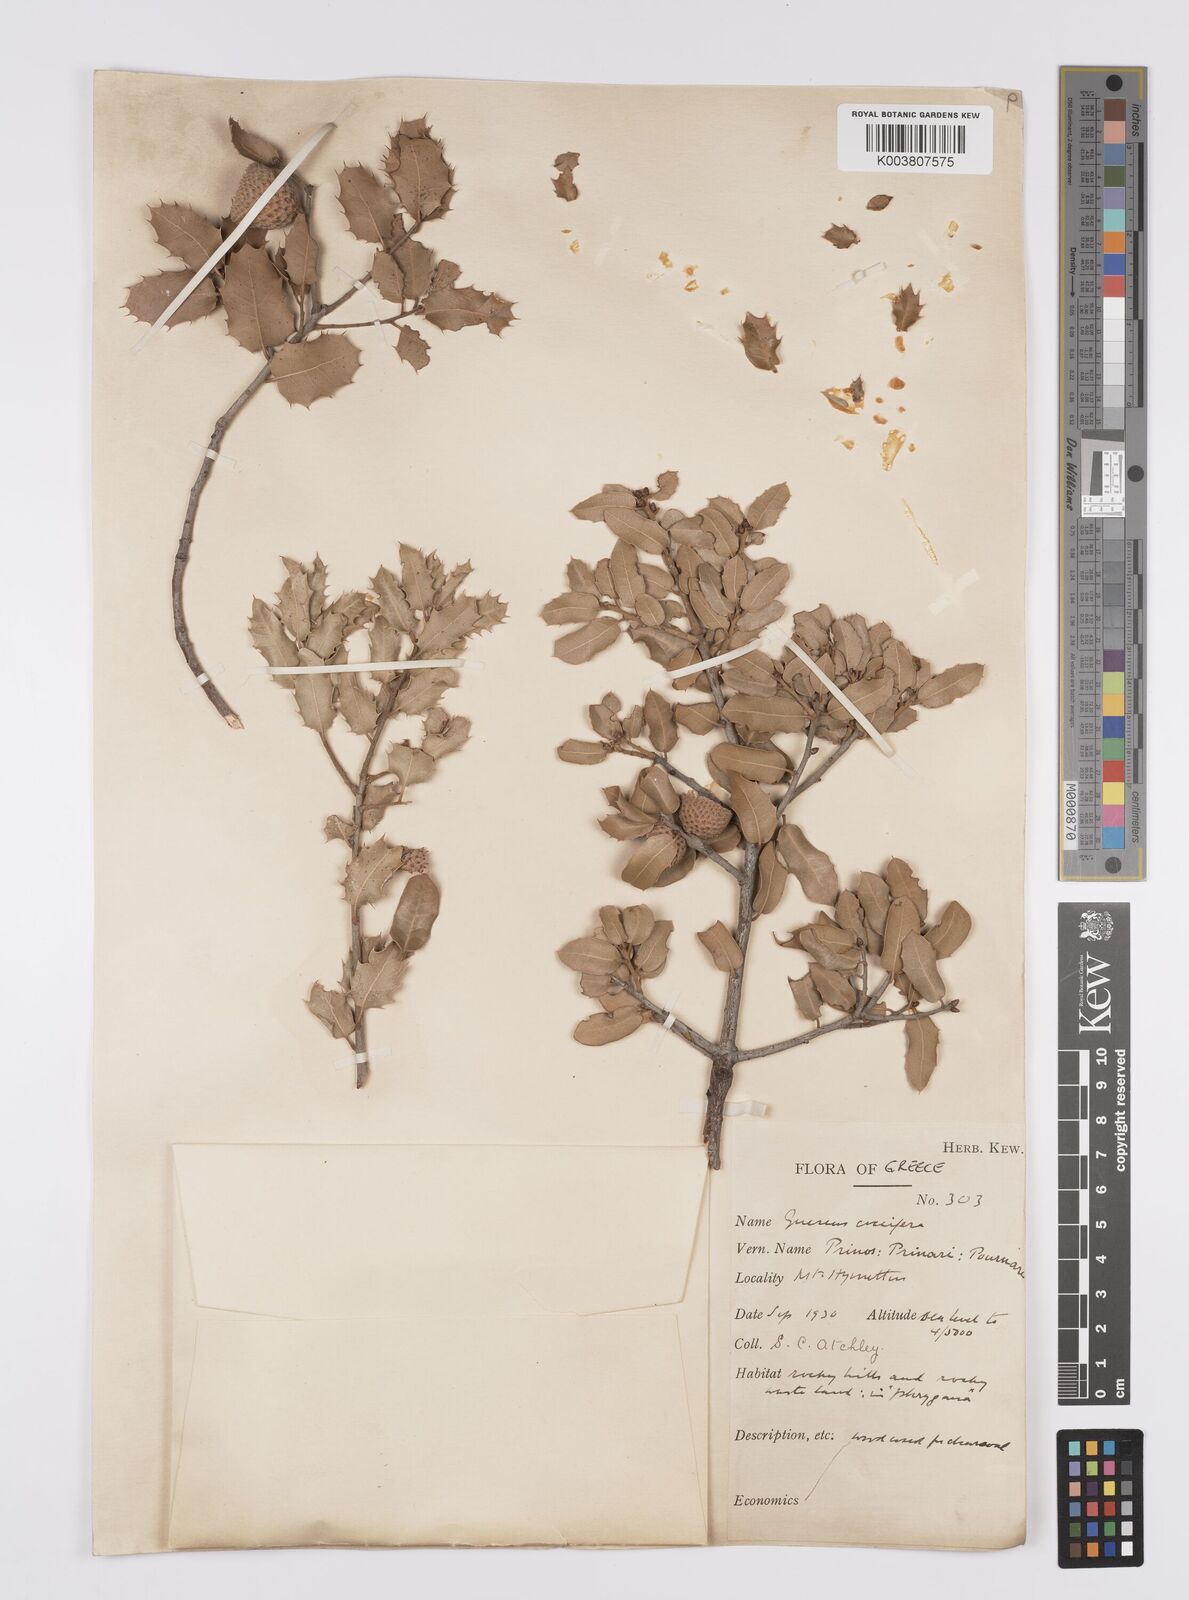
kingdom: Plantae
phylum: Tracheophyta
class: Magnoliopsida
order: Fagales
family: Fagaceae
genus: Quercus
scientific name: Quercus coccifera
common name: Kermes oak
